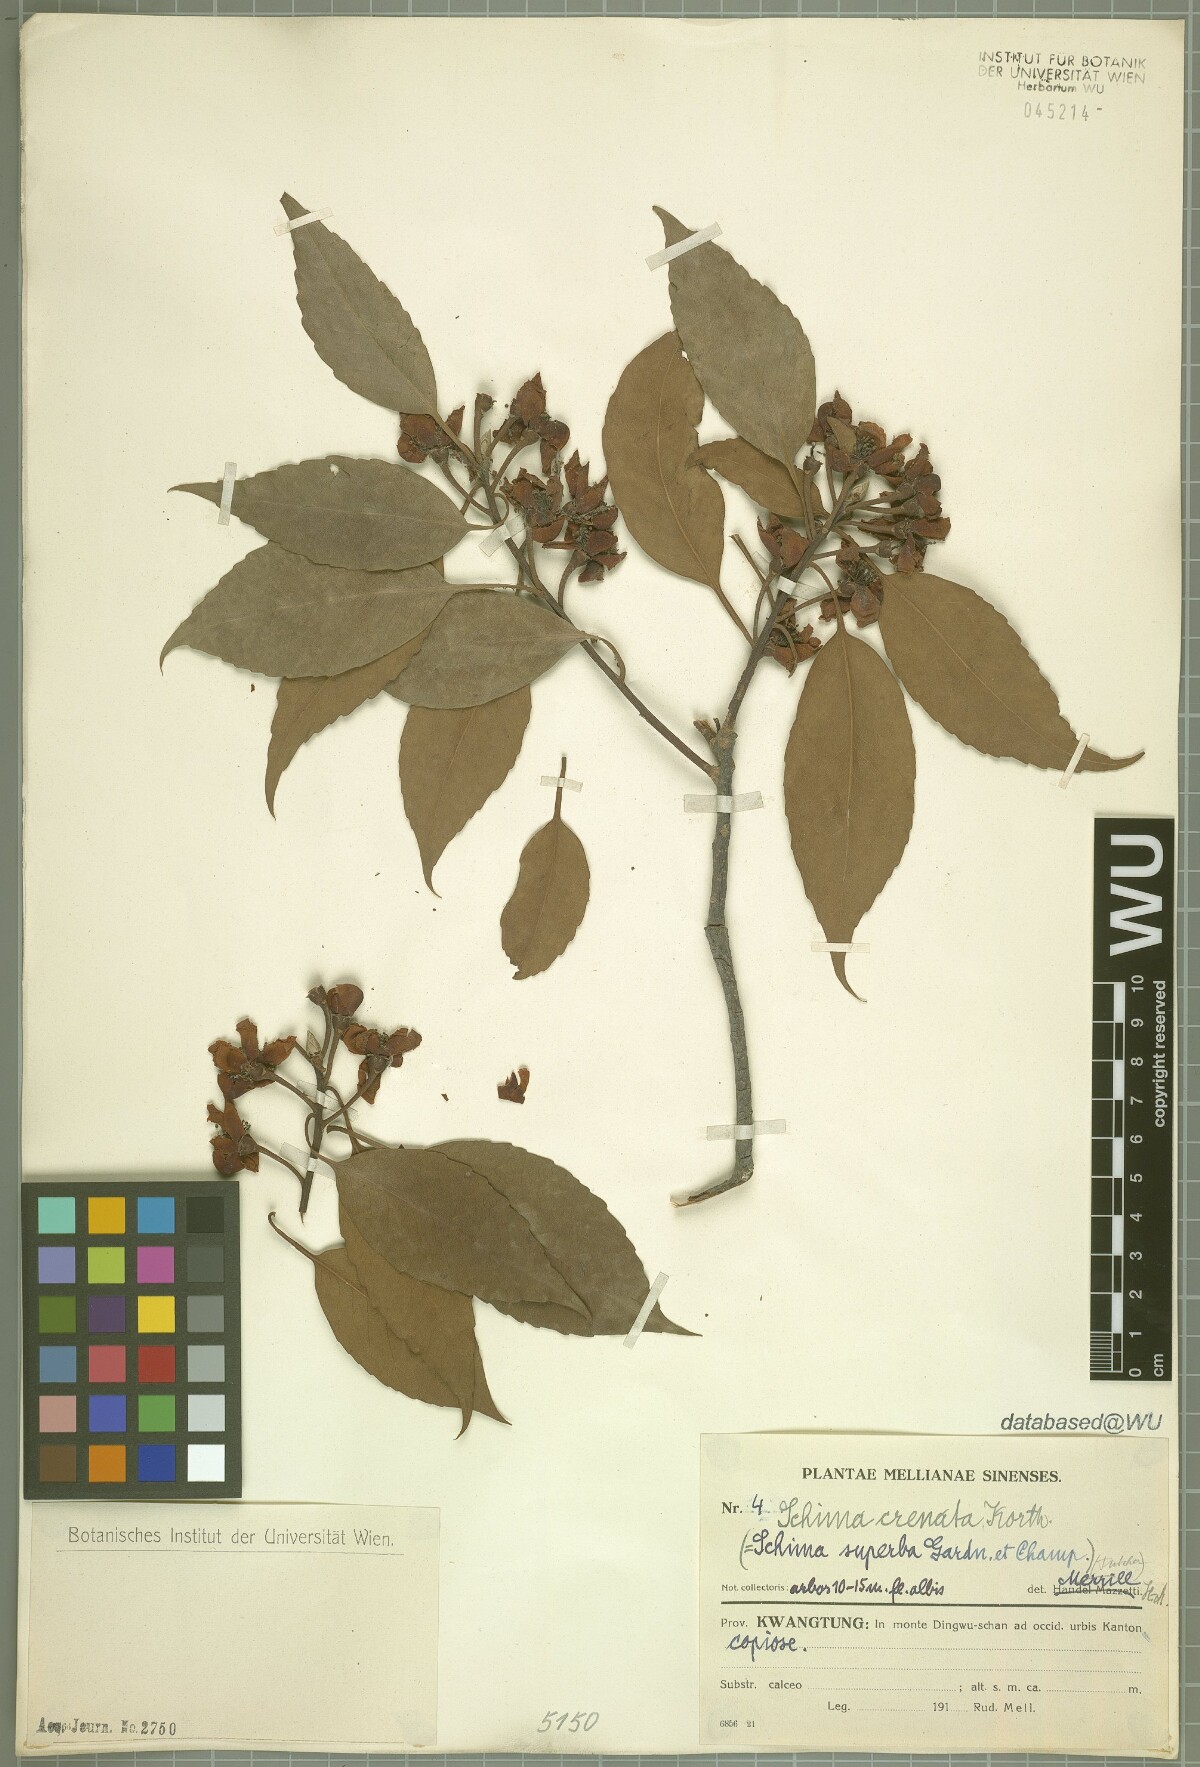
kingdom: Plantae
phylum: Tracheophyta
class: Magnoliopsida
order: Ericales
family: Theaceae
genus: Schima
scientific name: Schima wallichii
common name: Schima
